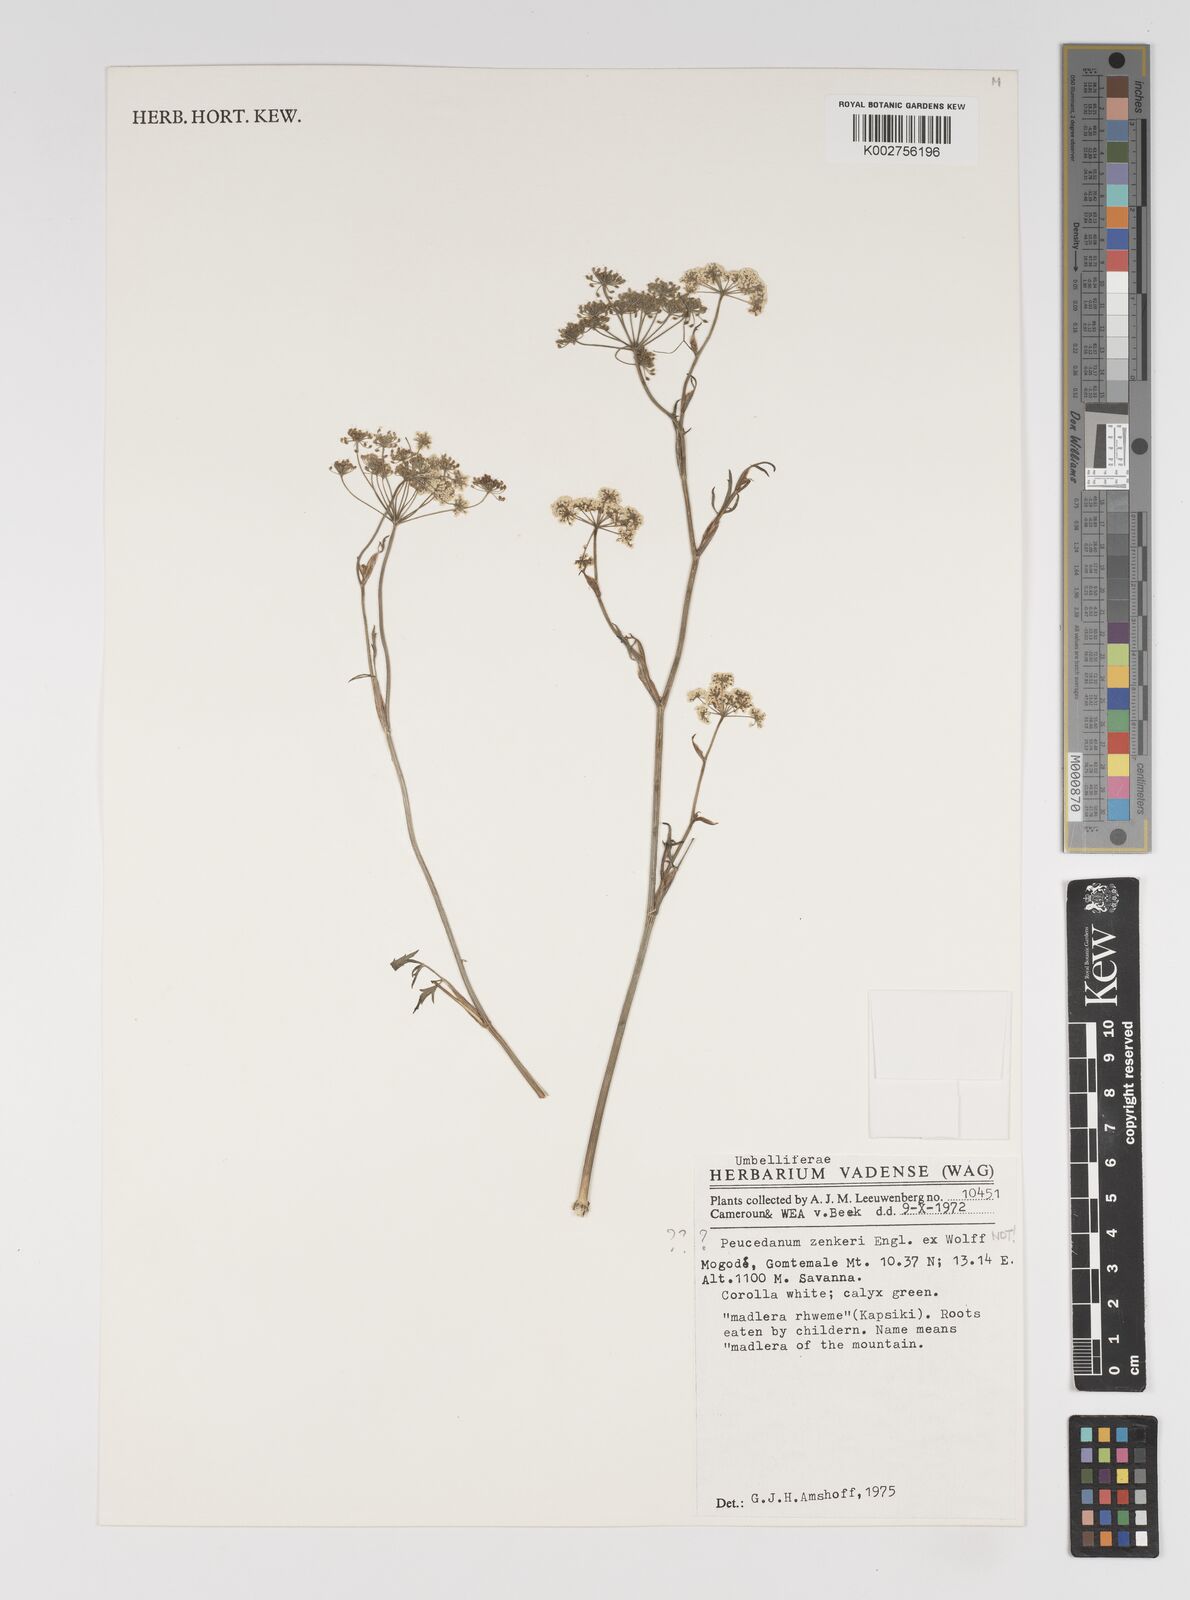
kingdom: Plantae
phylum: Tracheophyta
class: Magnoliopsida
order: Apiales
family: Apiaceae
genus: Pimpinella
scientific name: Pimpinella ledermannii
